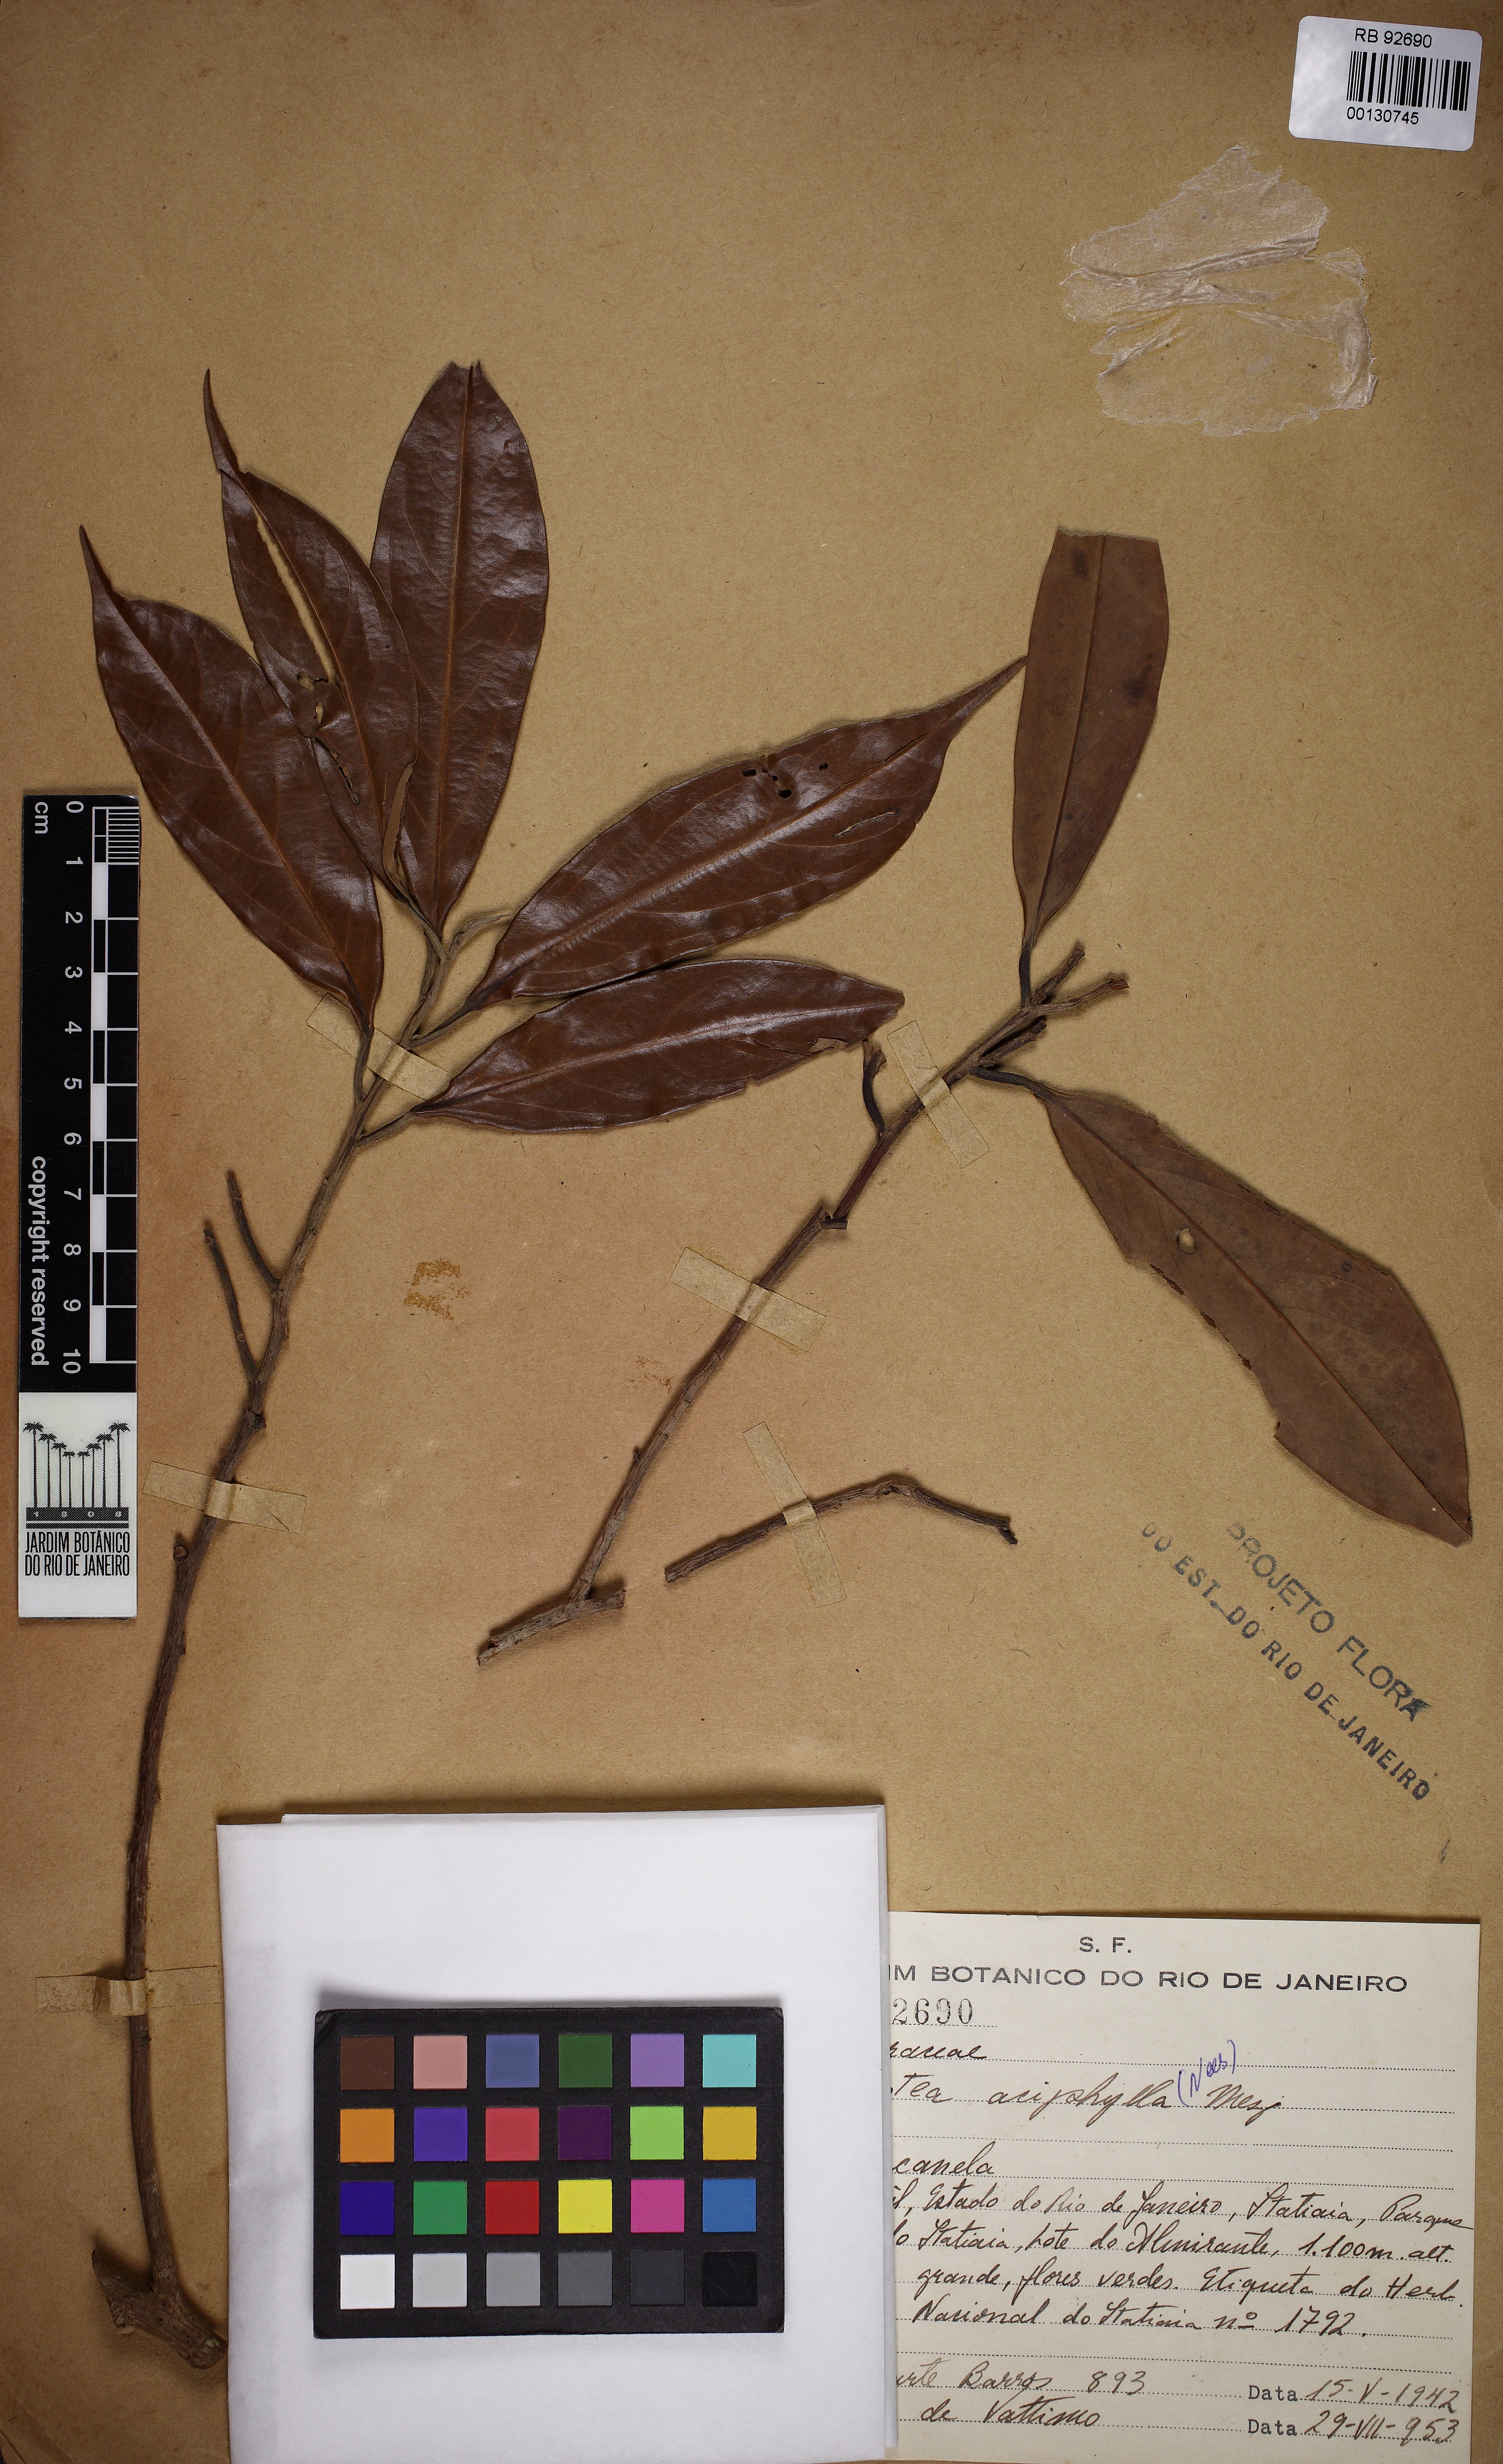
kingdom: Plantae
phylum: Tracheophyta
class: Magnoliopsida
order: Laurales
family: Lauraceae
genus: Ocotea
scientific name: Ocotea aciphylla
